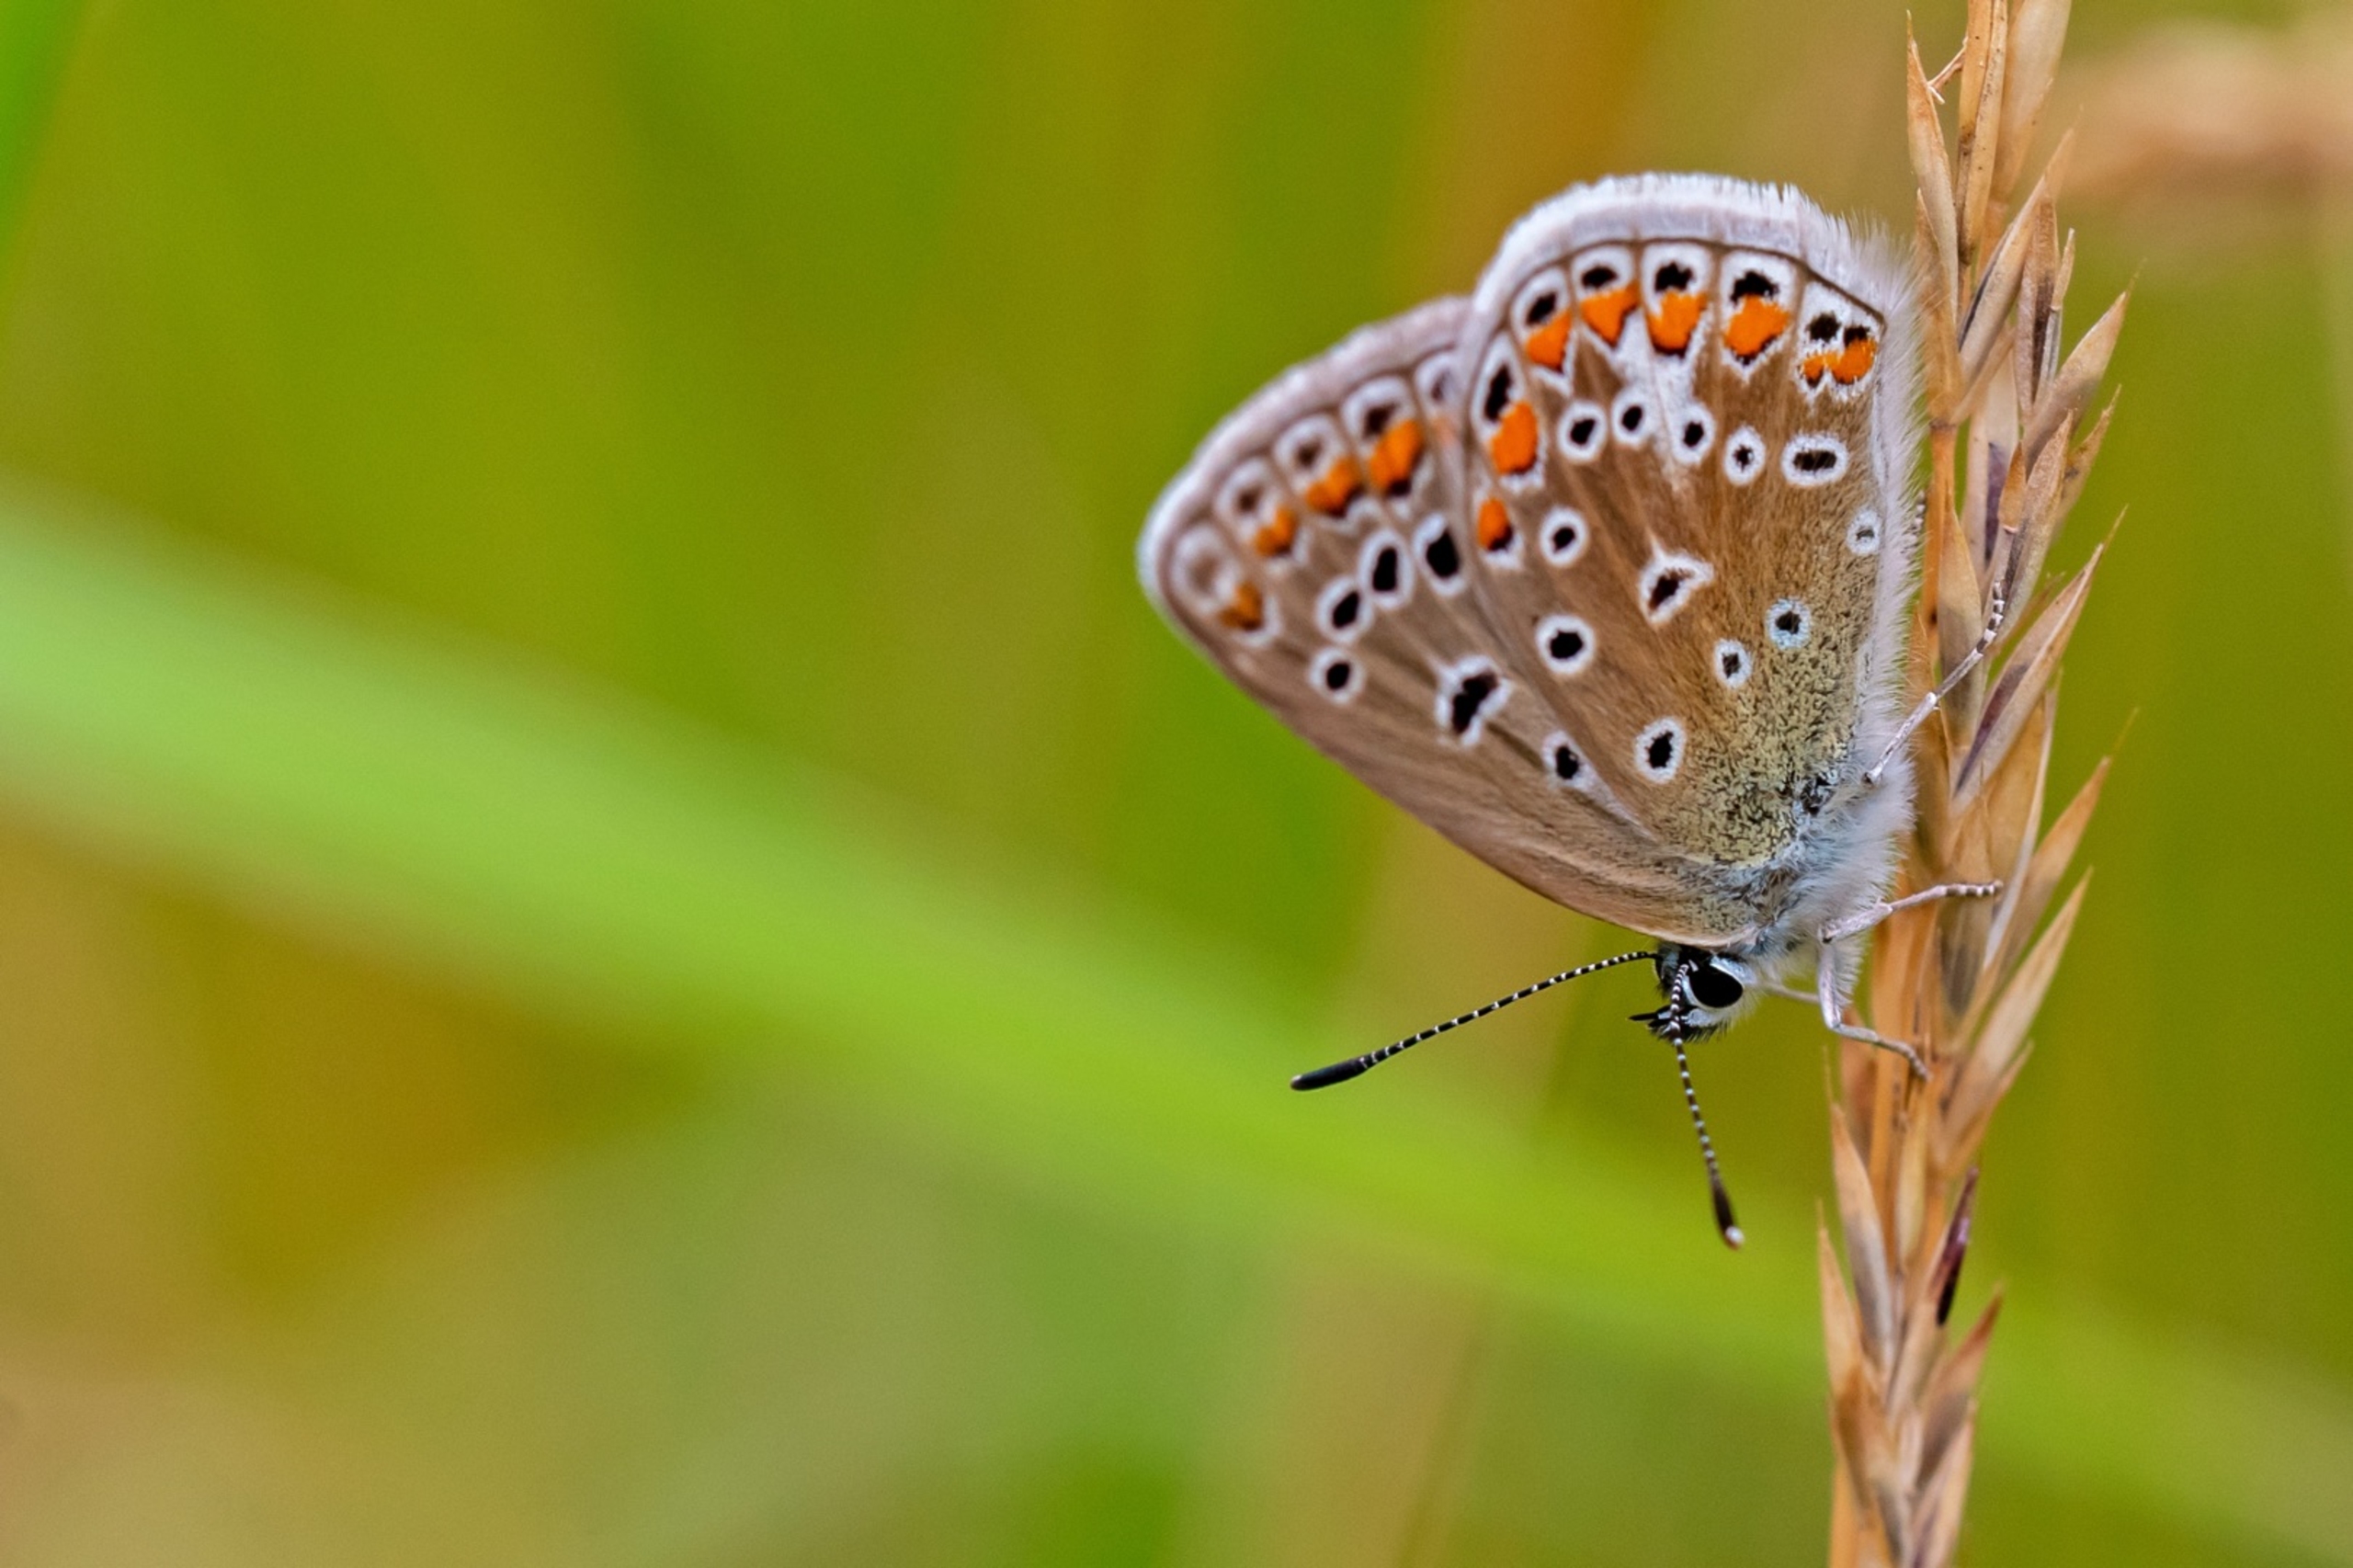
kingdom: Animalia
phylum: Arthropoda
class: Insecta
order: Lepidoptera
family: Lycaenidae
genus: Polyommatus
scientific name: Polyommatus icarus
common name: Almindelig blåfugl
